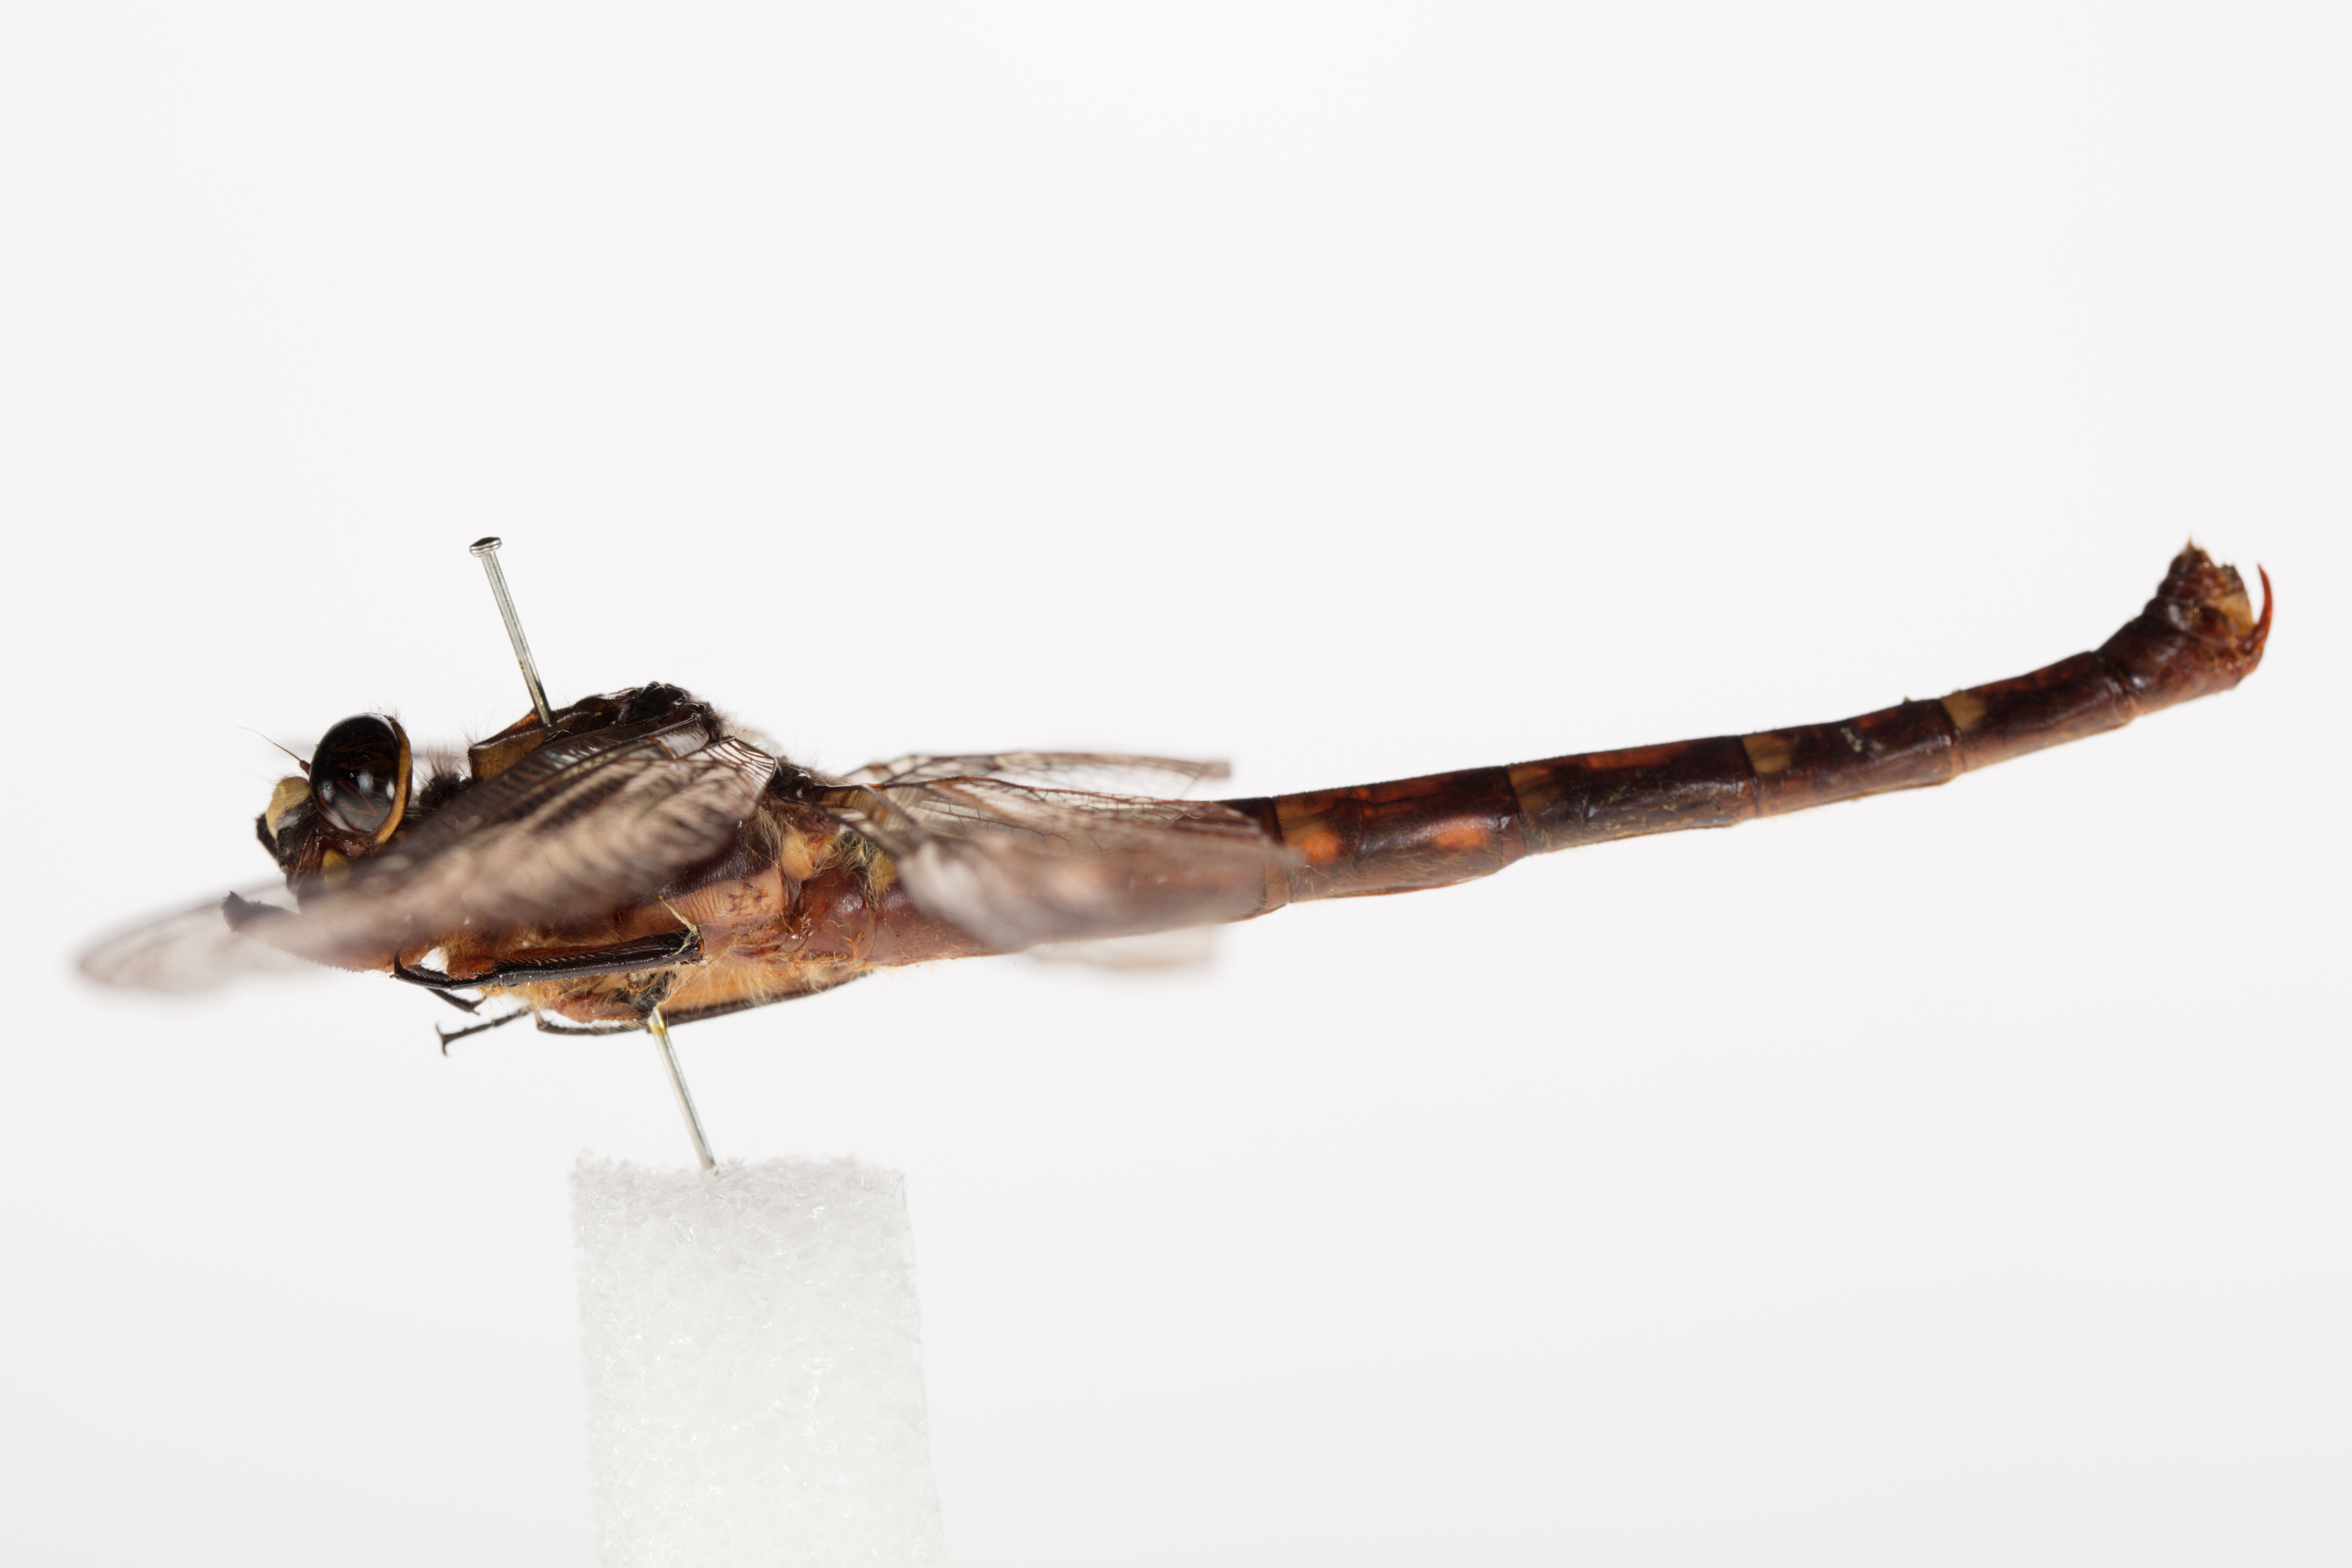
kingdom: Animalia
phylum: Arthropoda
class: Insecta
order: Odonata
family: Petaluridae
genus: Uropetala
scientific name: Uropetala carovei
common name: Bush giant dragonfly
